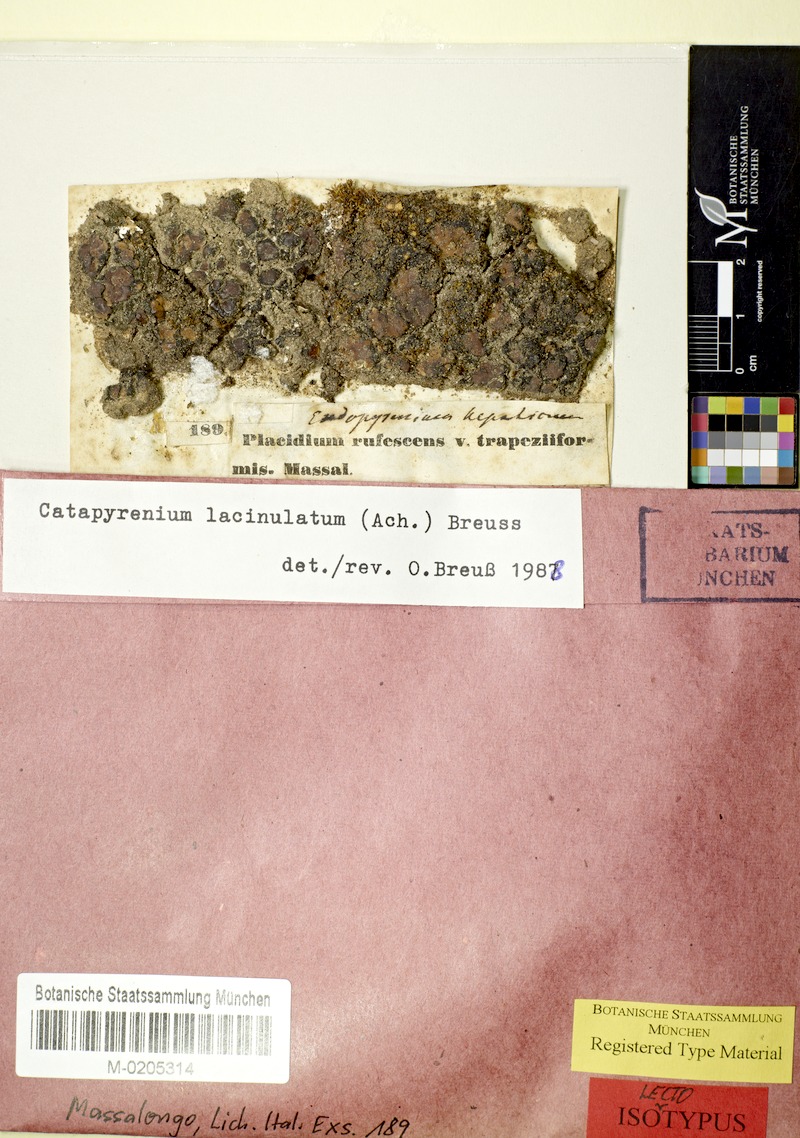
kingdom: Fungi
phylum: Ascomycota
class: Eurotiomycetes
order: Verrucariales
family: Verrucariaceae
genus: Clavascidium
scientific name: Clavascidium lacinulatum
